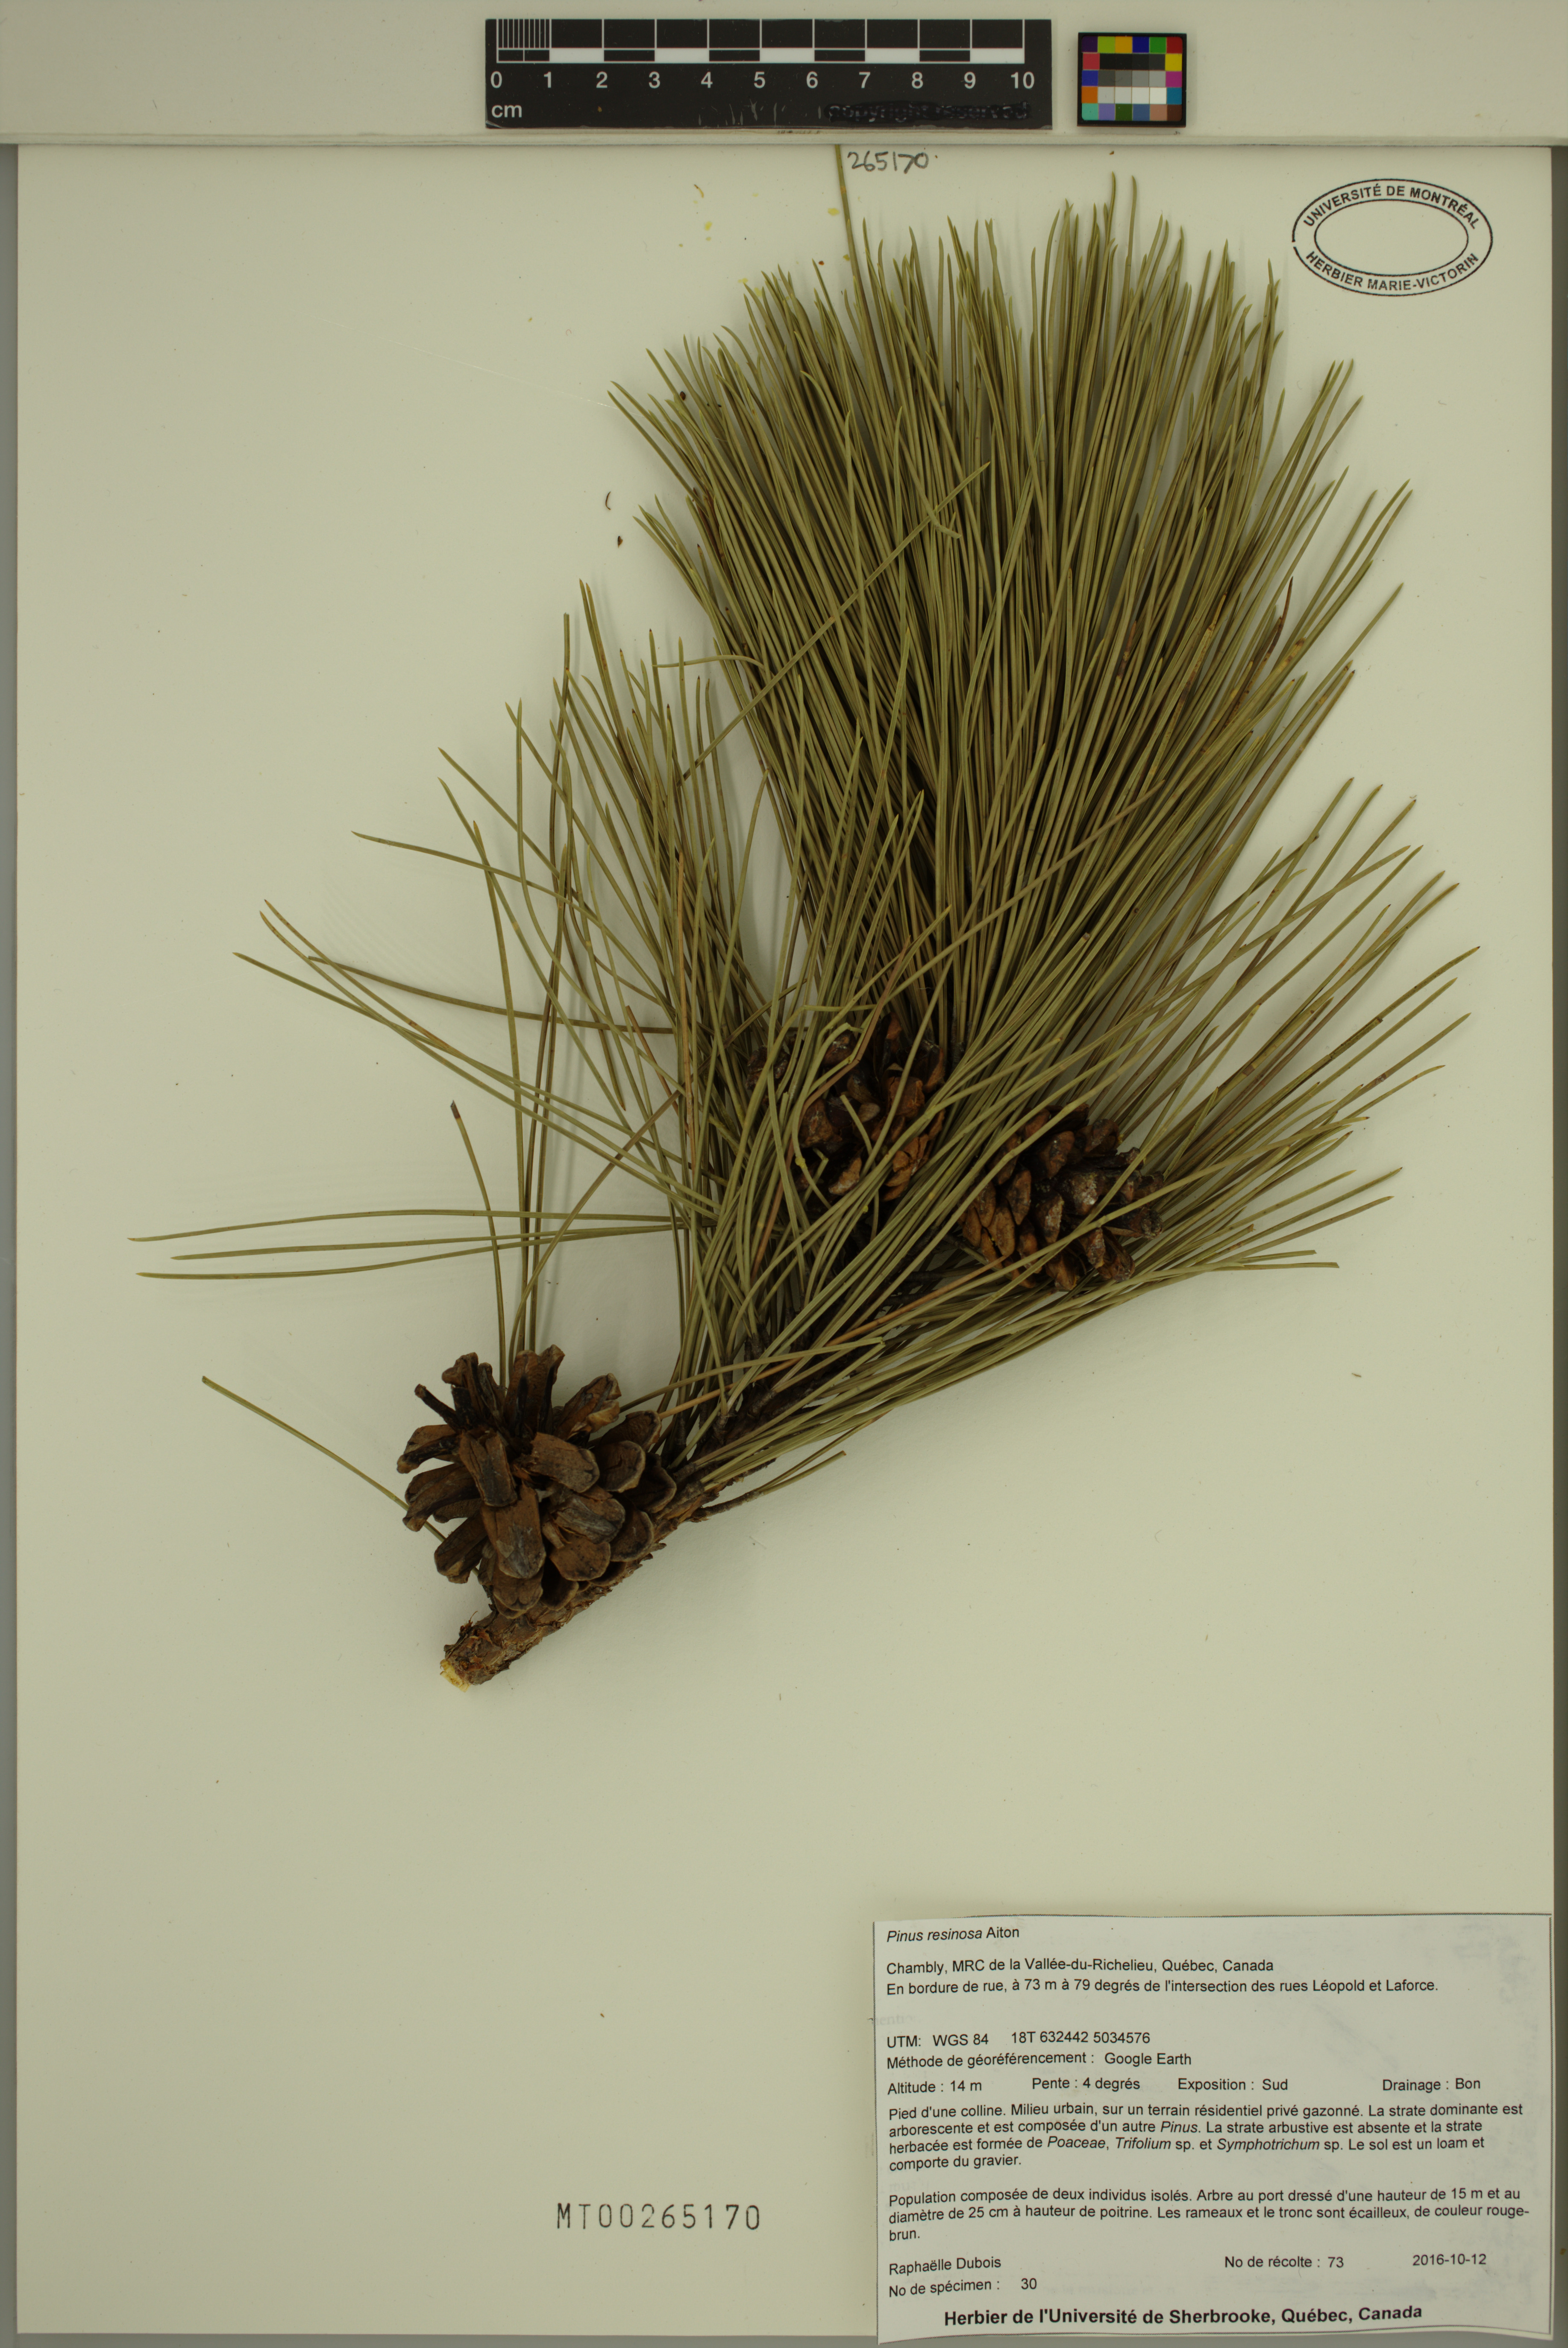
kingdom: Plantae
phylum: Tracheophyta
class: Pinopsida
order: Pinales
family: Pinaceae
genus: Pinus
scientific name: Pinus resinosa
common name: Norway pine
